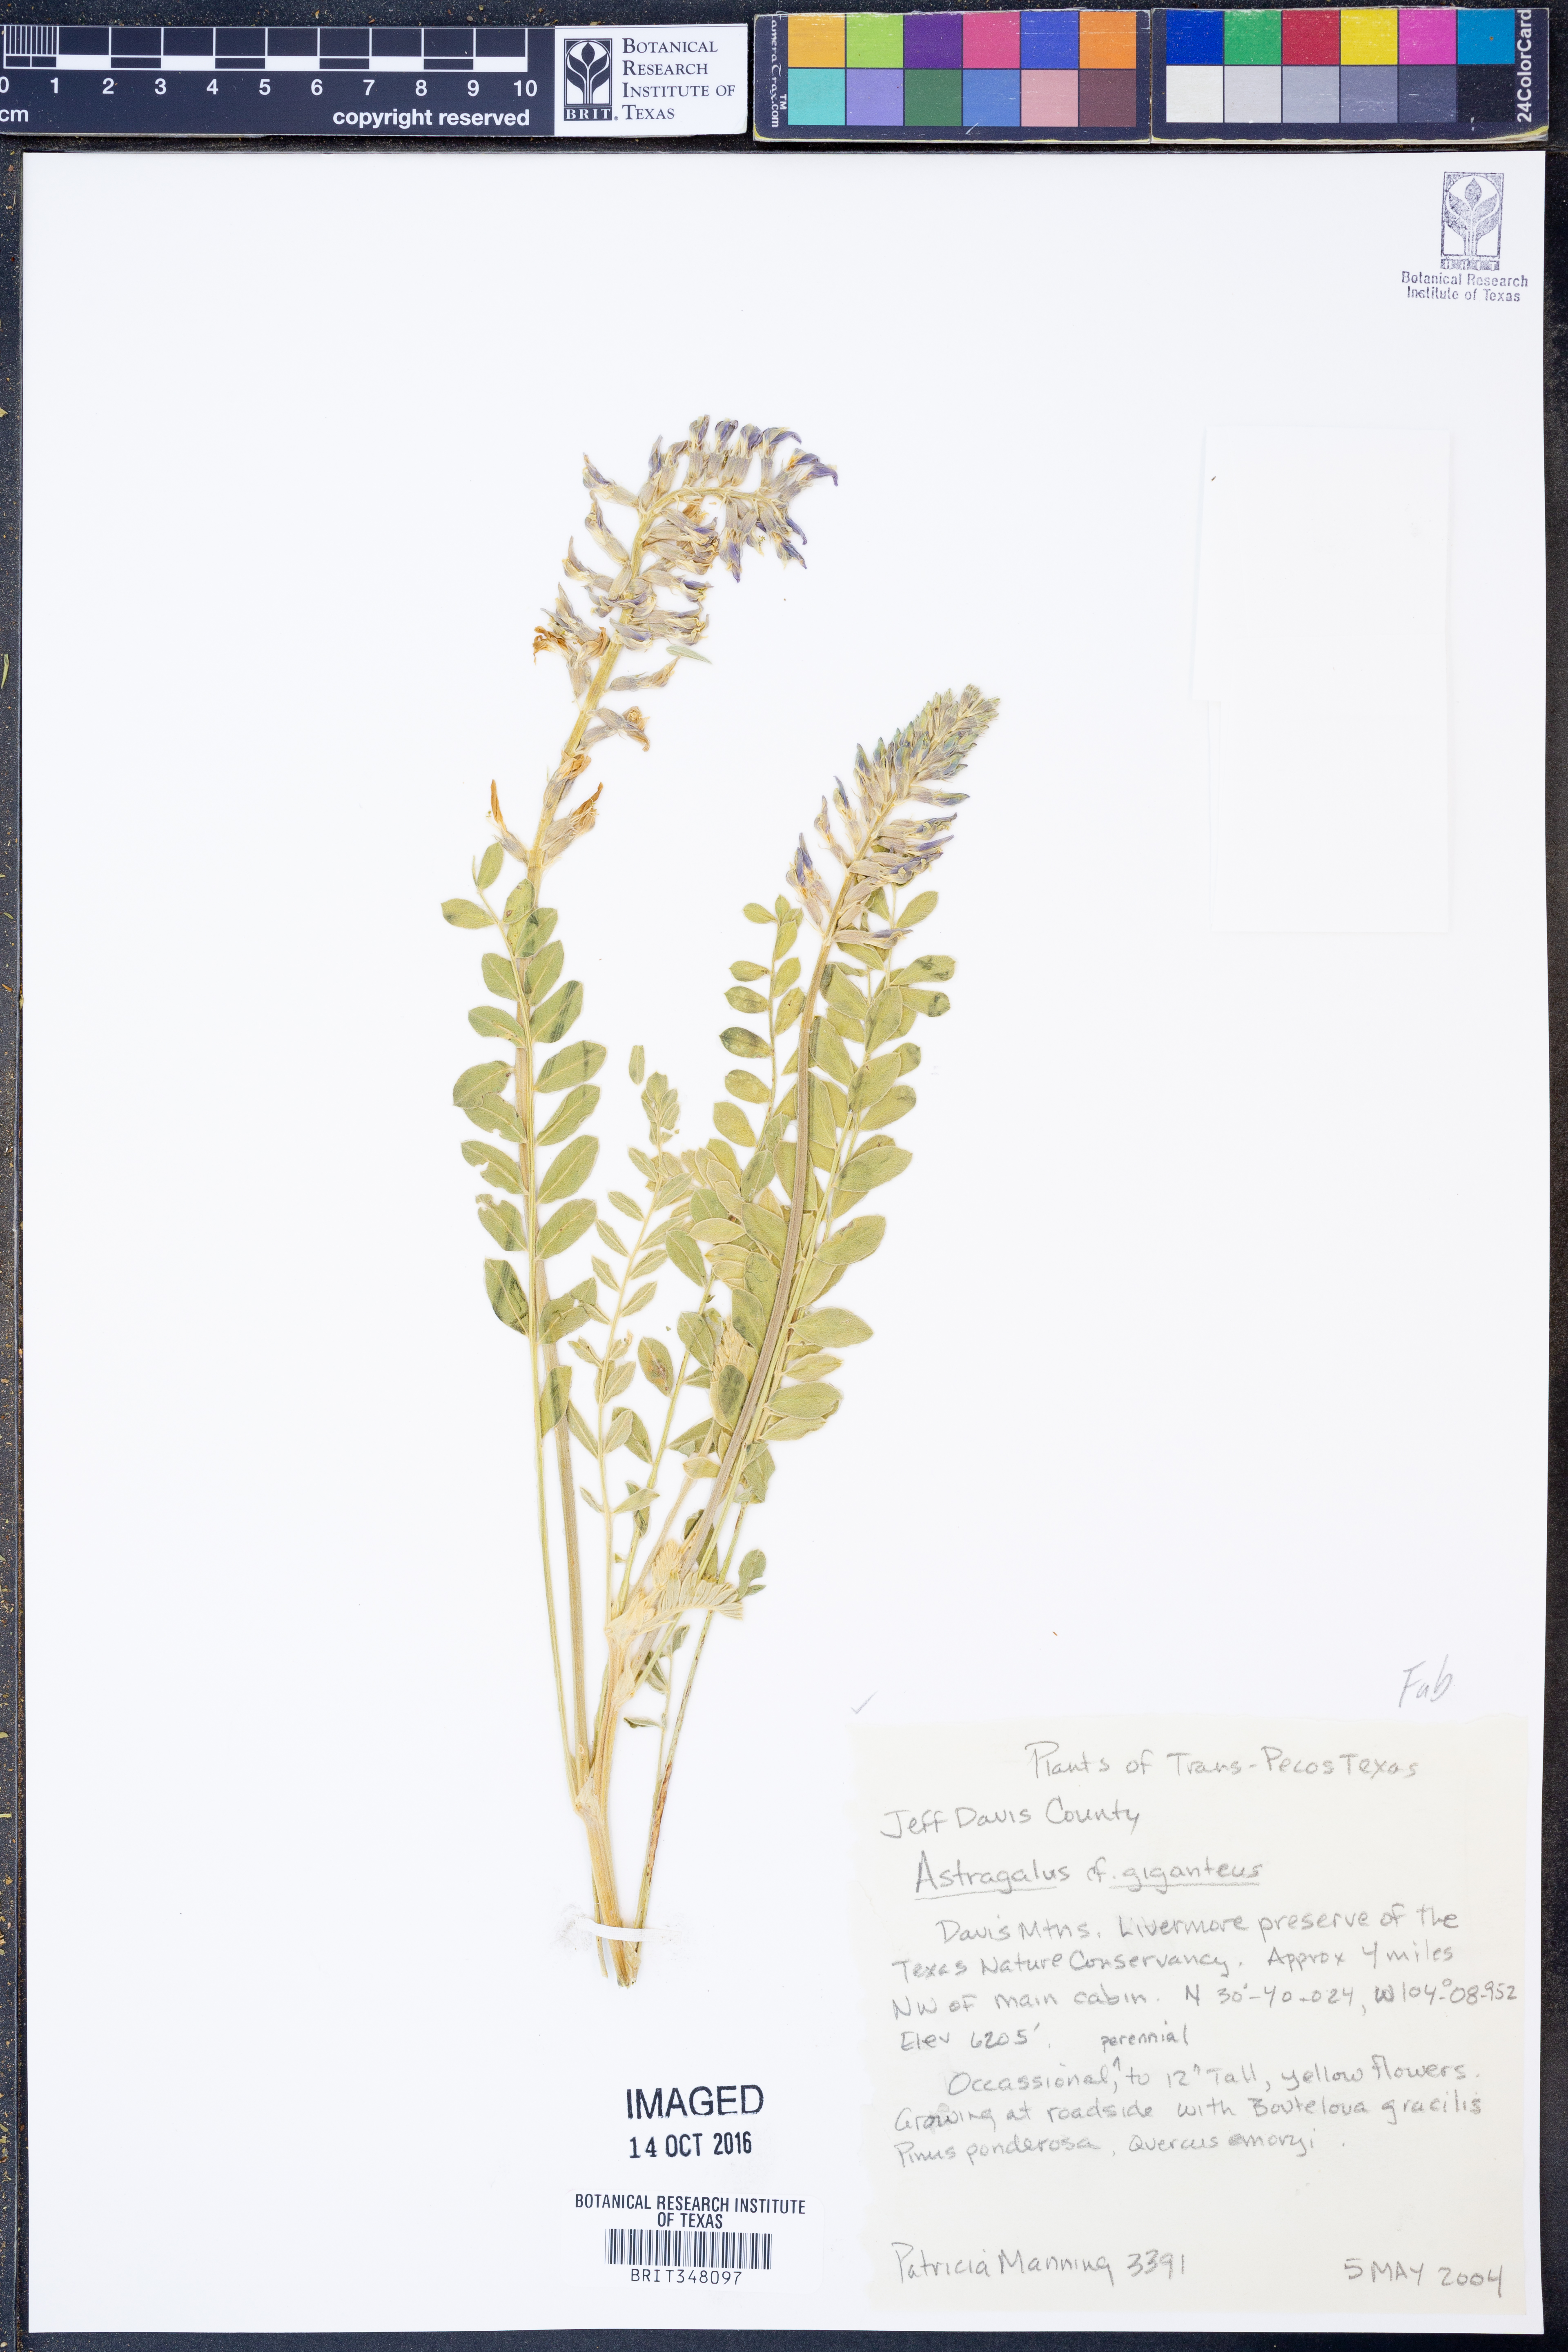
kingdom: Plantae
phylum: Tracheophyta
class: Magnoliopsida
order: Fabales
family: Fabaceae
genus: Astragalus
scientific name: Astragalus giganteus
